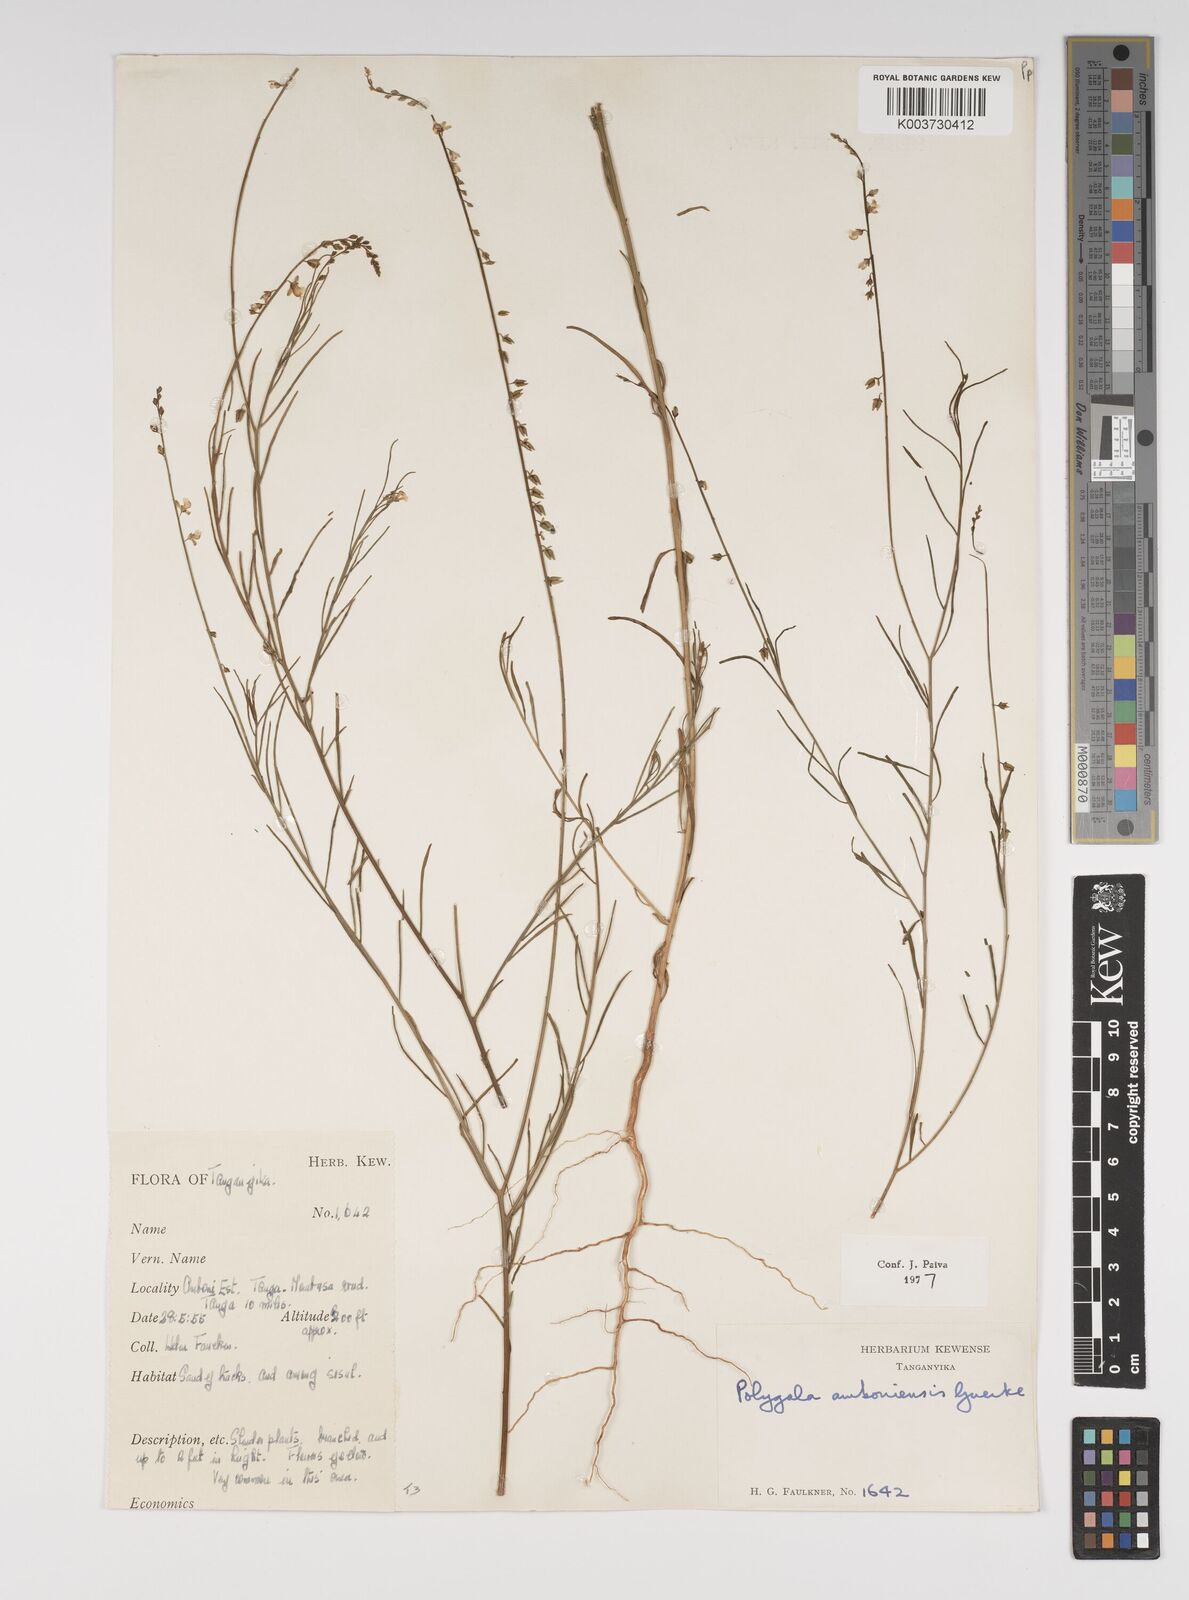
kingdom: Plantae
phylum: Tracheophyta
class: Magnoliopsida
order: Fabales
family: Polygalaceae
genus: Polygala
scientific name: Polygala amboniensis
